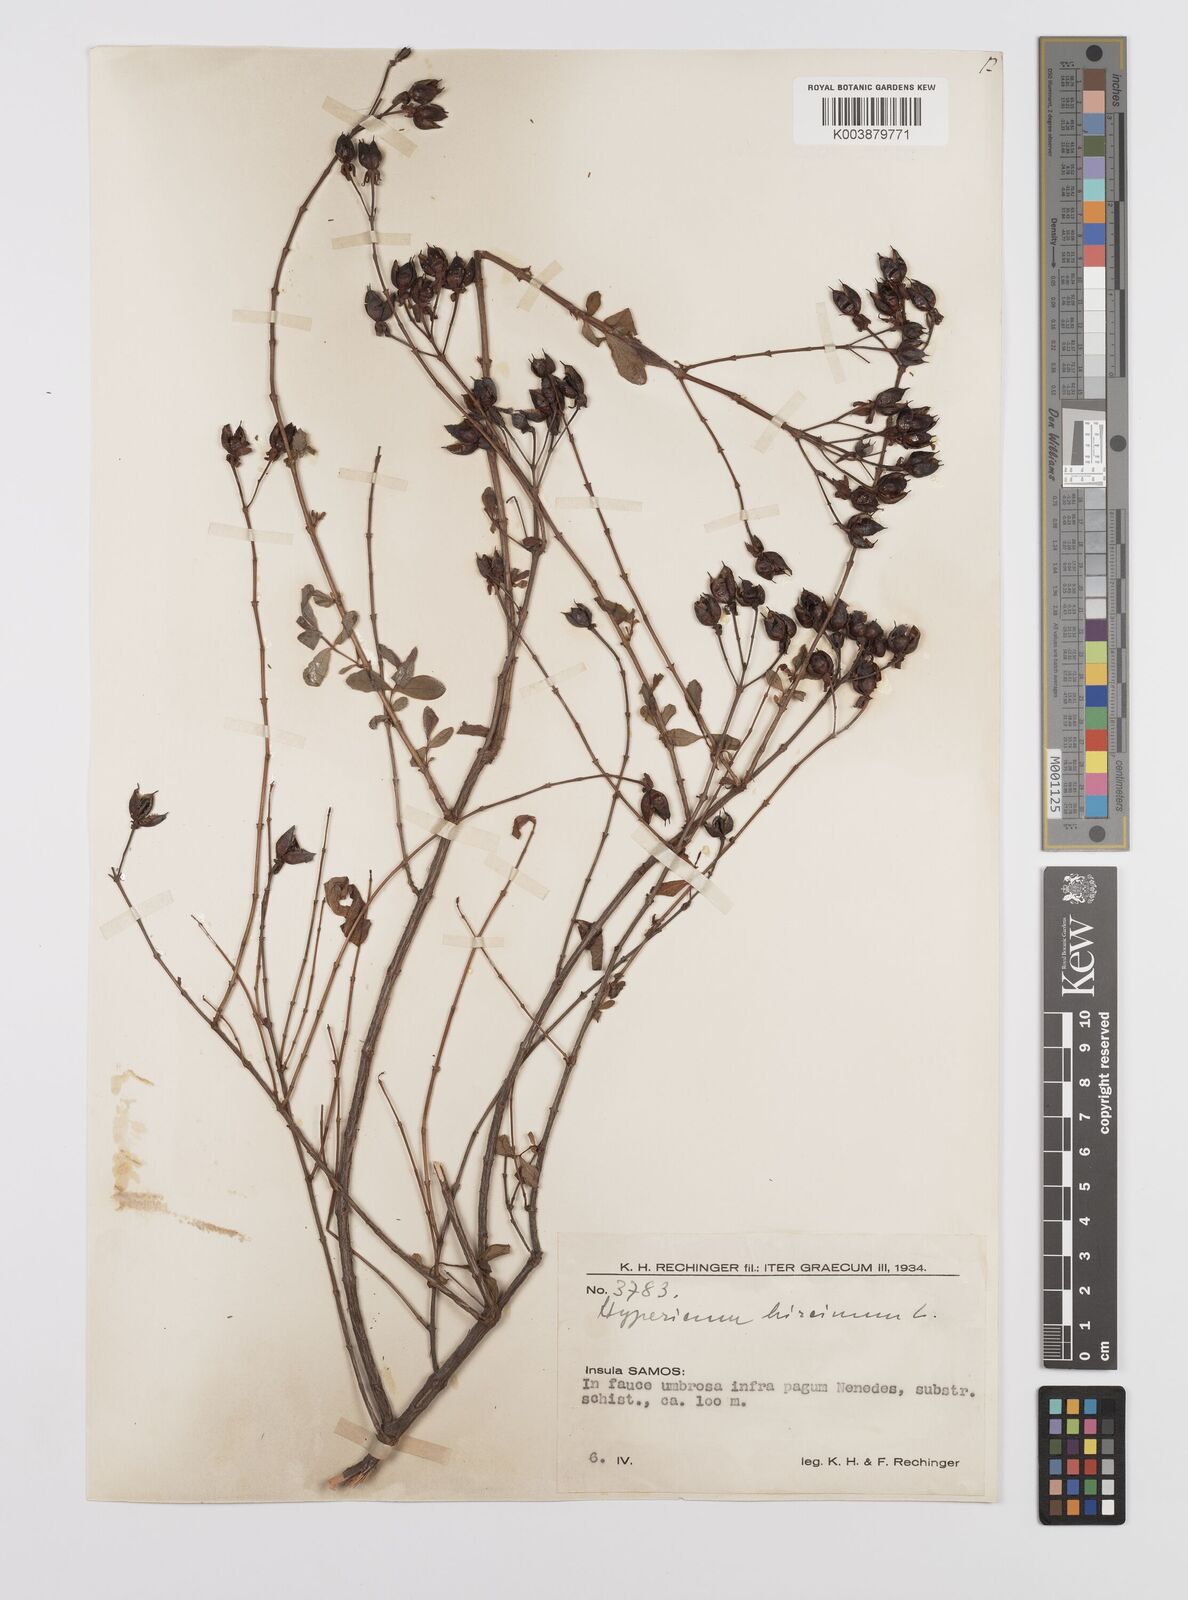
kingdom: Plantae
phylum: Tracheophyta
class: Magnoliopsida
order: Malpighiales
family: Hypericaceae
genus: Hypericum
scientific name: Hypericum hircinum
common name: Stinking tutsan
